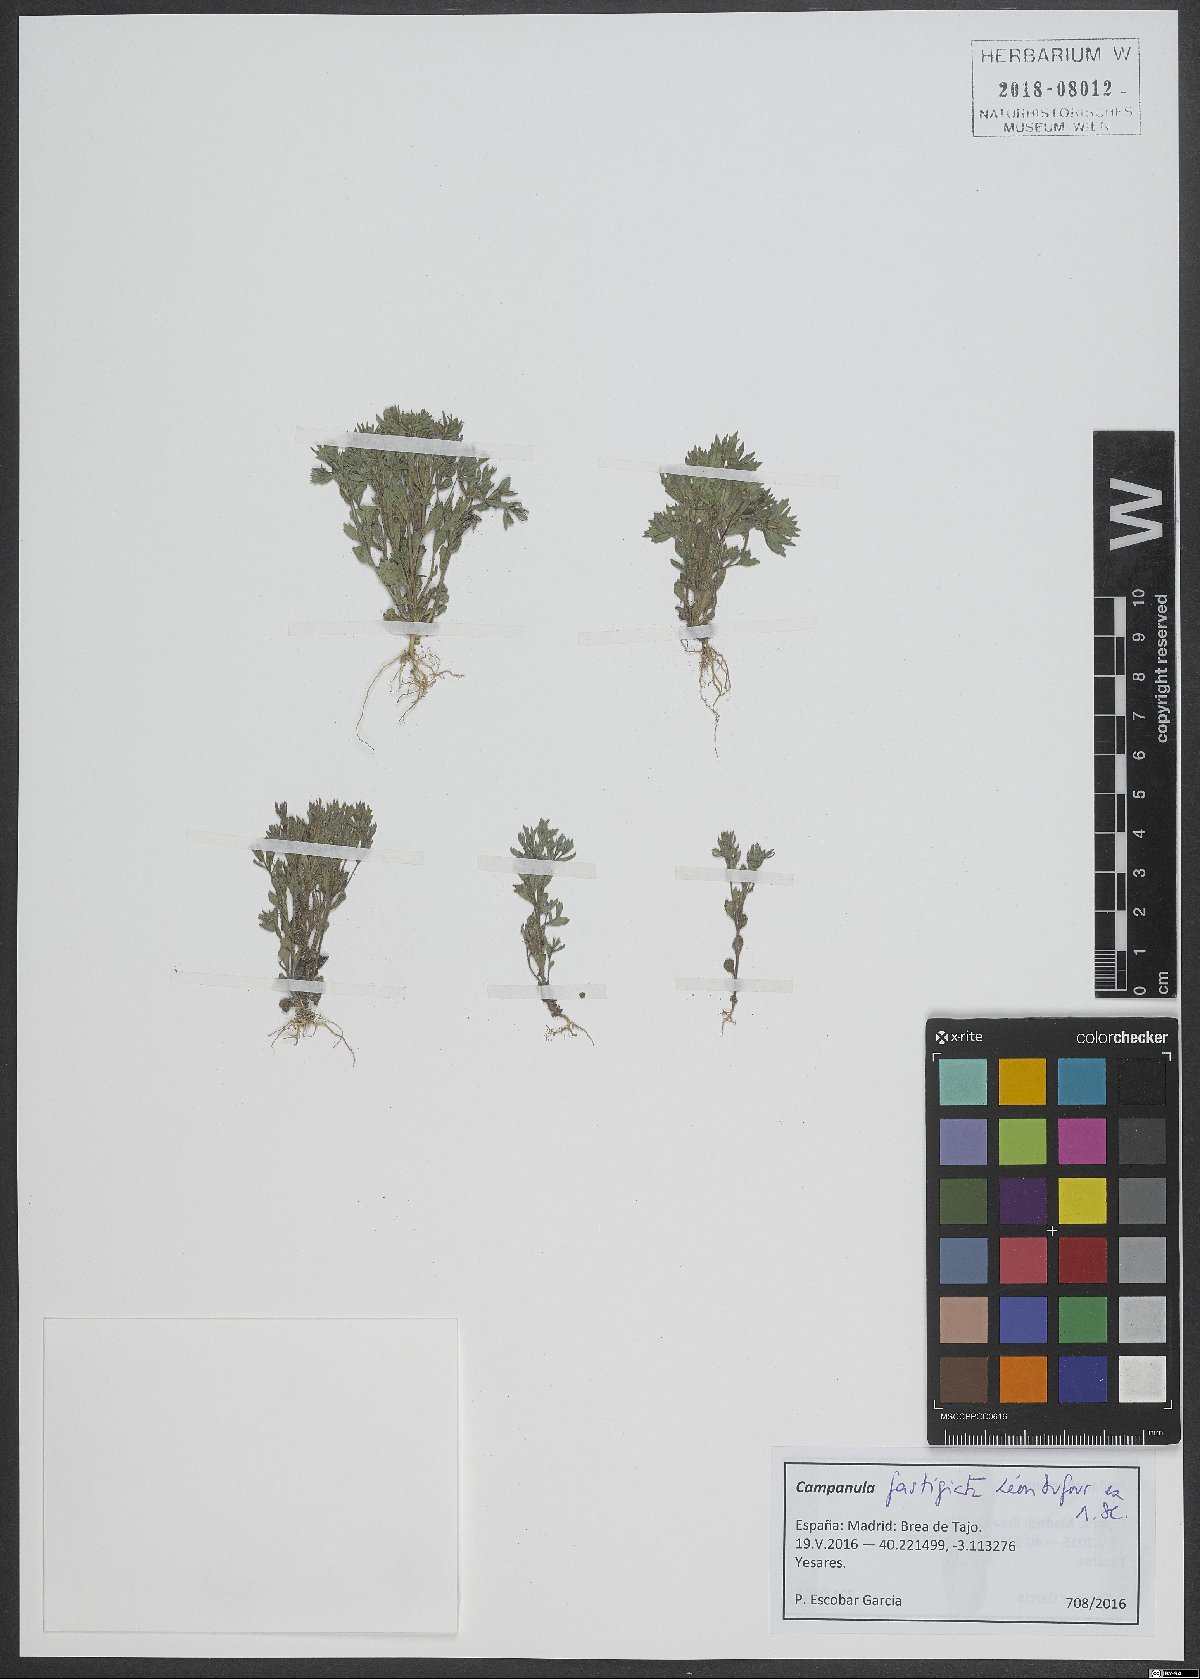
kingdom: Plantae
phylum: Tracheophyta
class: Magnoliopsida
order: Asterales
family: Campanulaceae
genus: Campanula
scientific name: Campanula fastigiata
